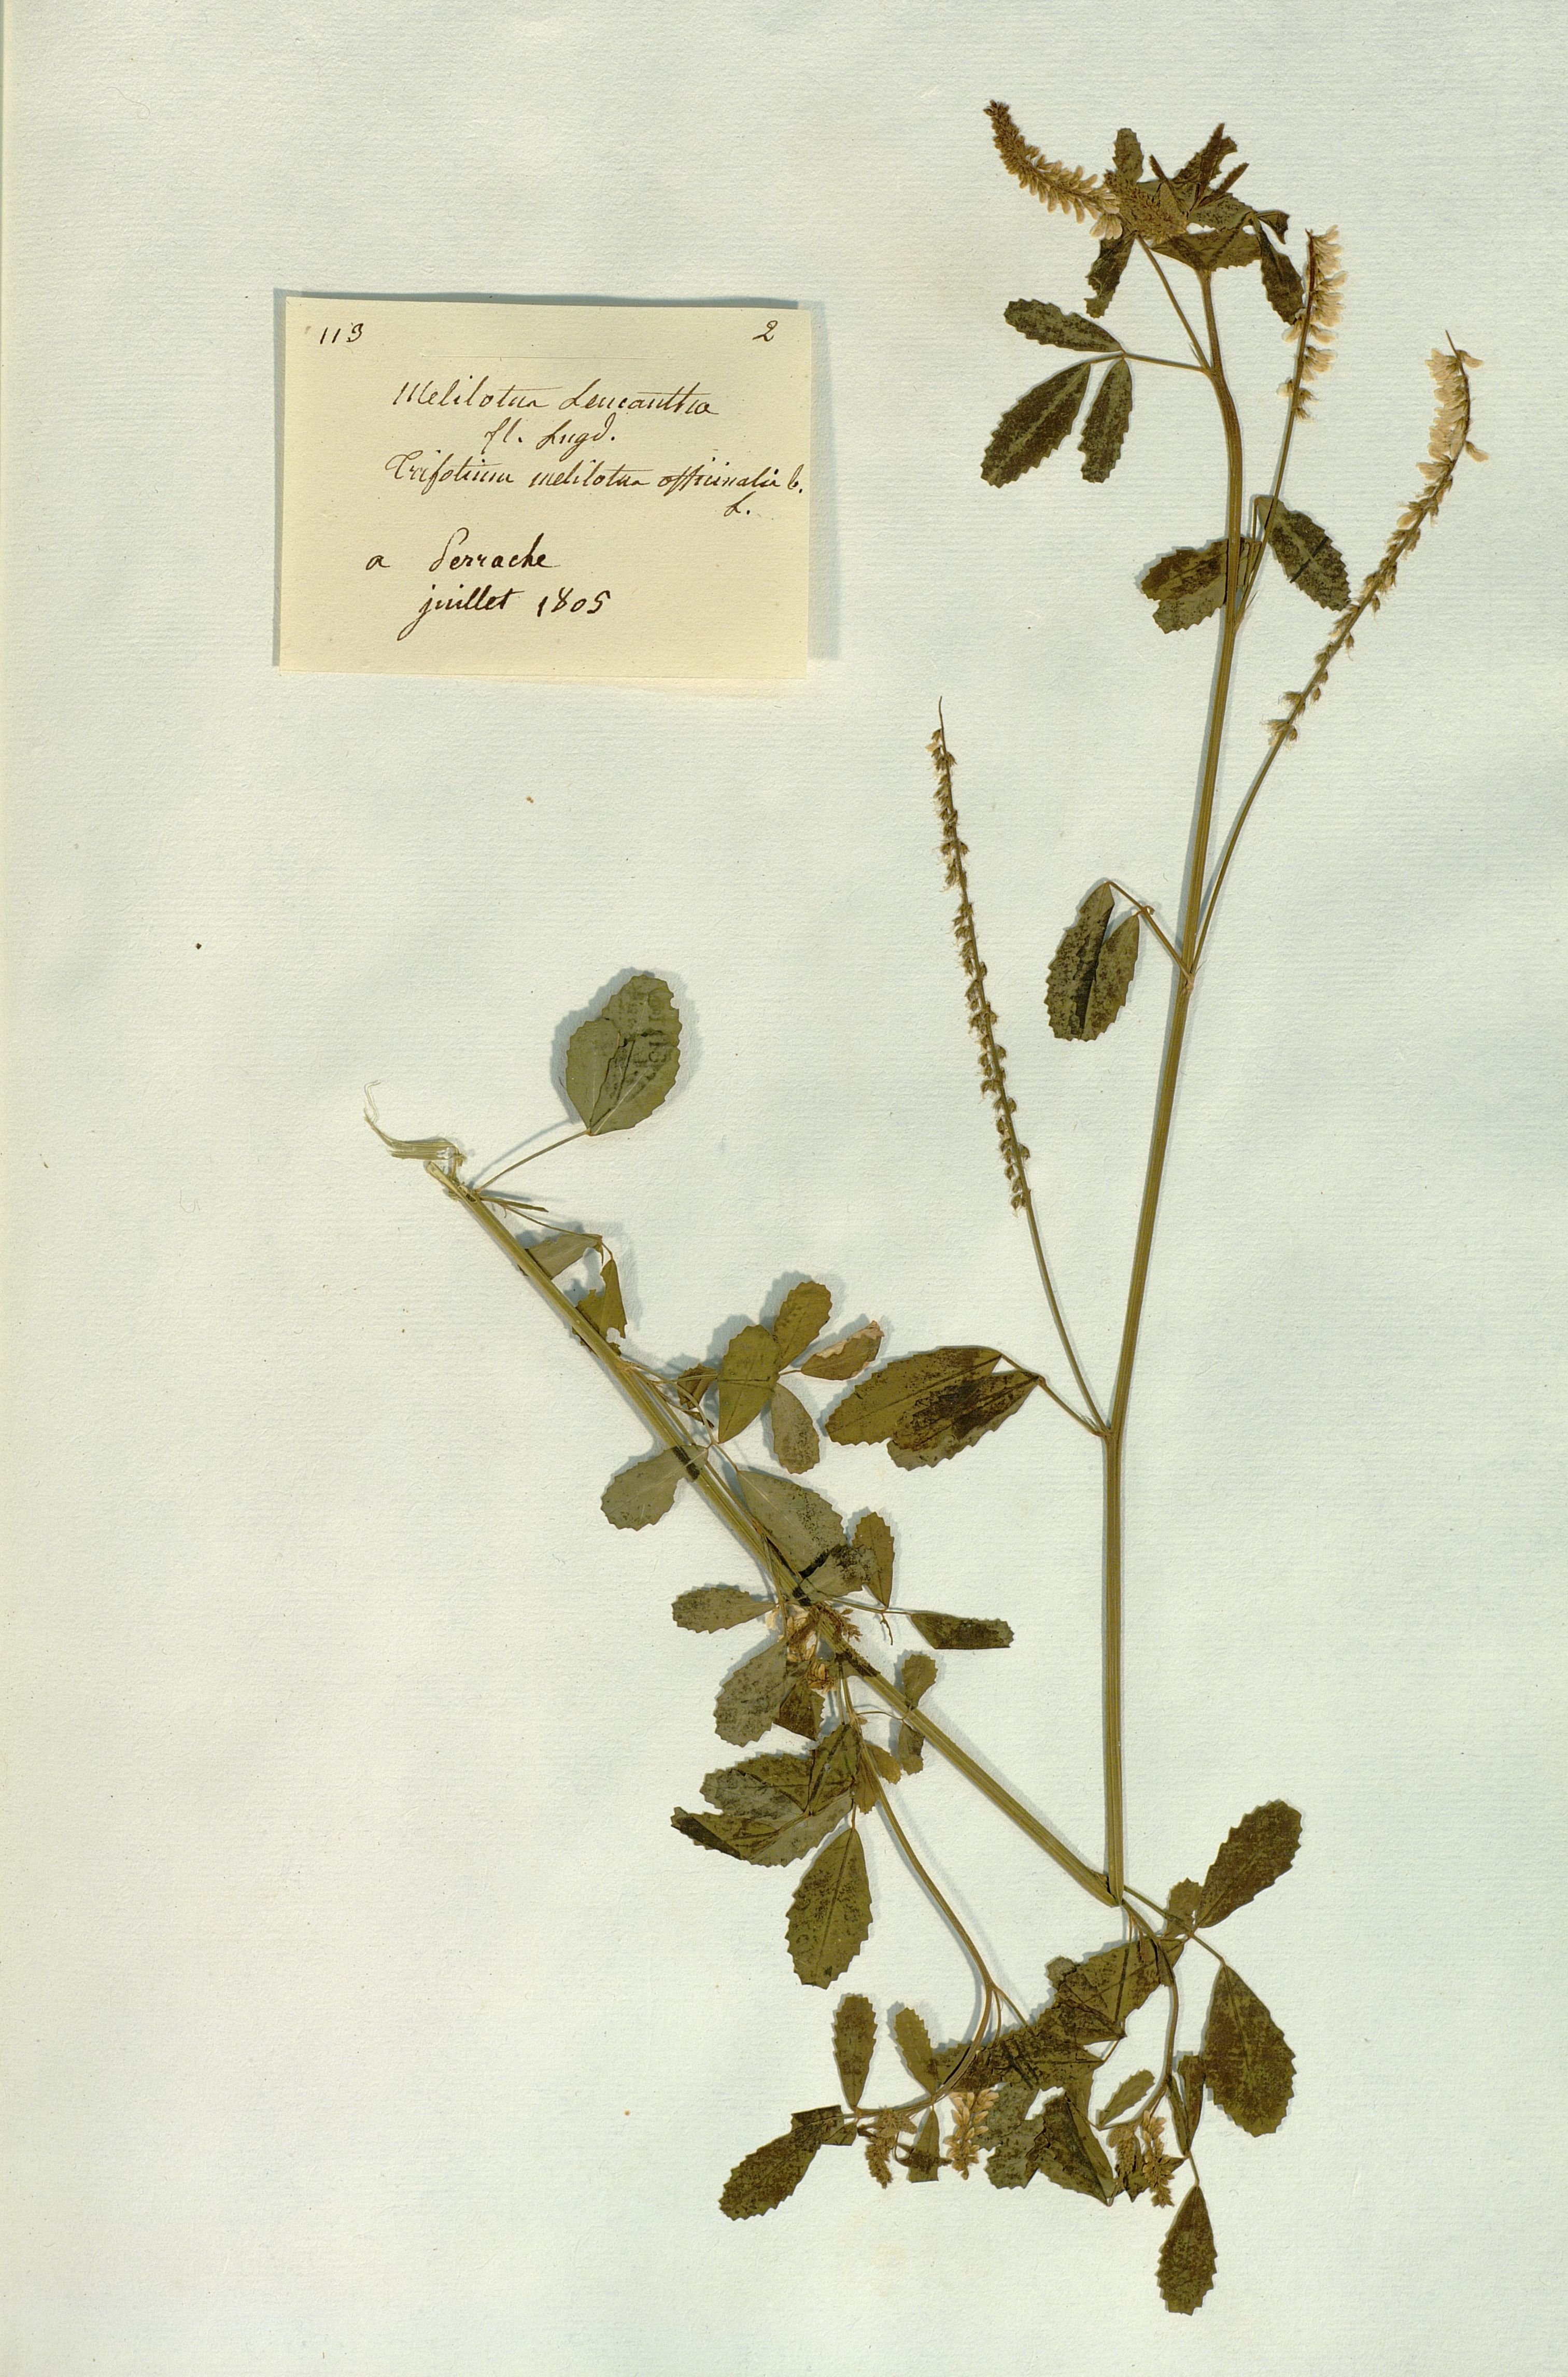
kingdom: Plantae
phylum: Tracheophyta
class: Magnoliopsida
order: Fabales
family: Fabaceae
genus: Melilotus
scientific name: Melilotus albus
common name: White melilot
